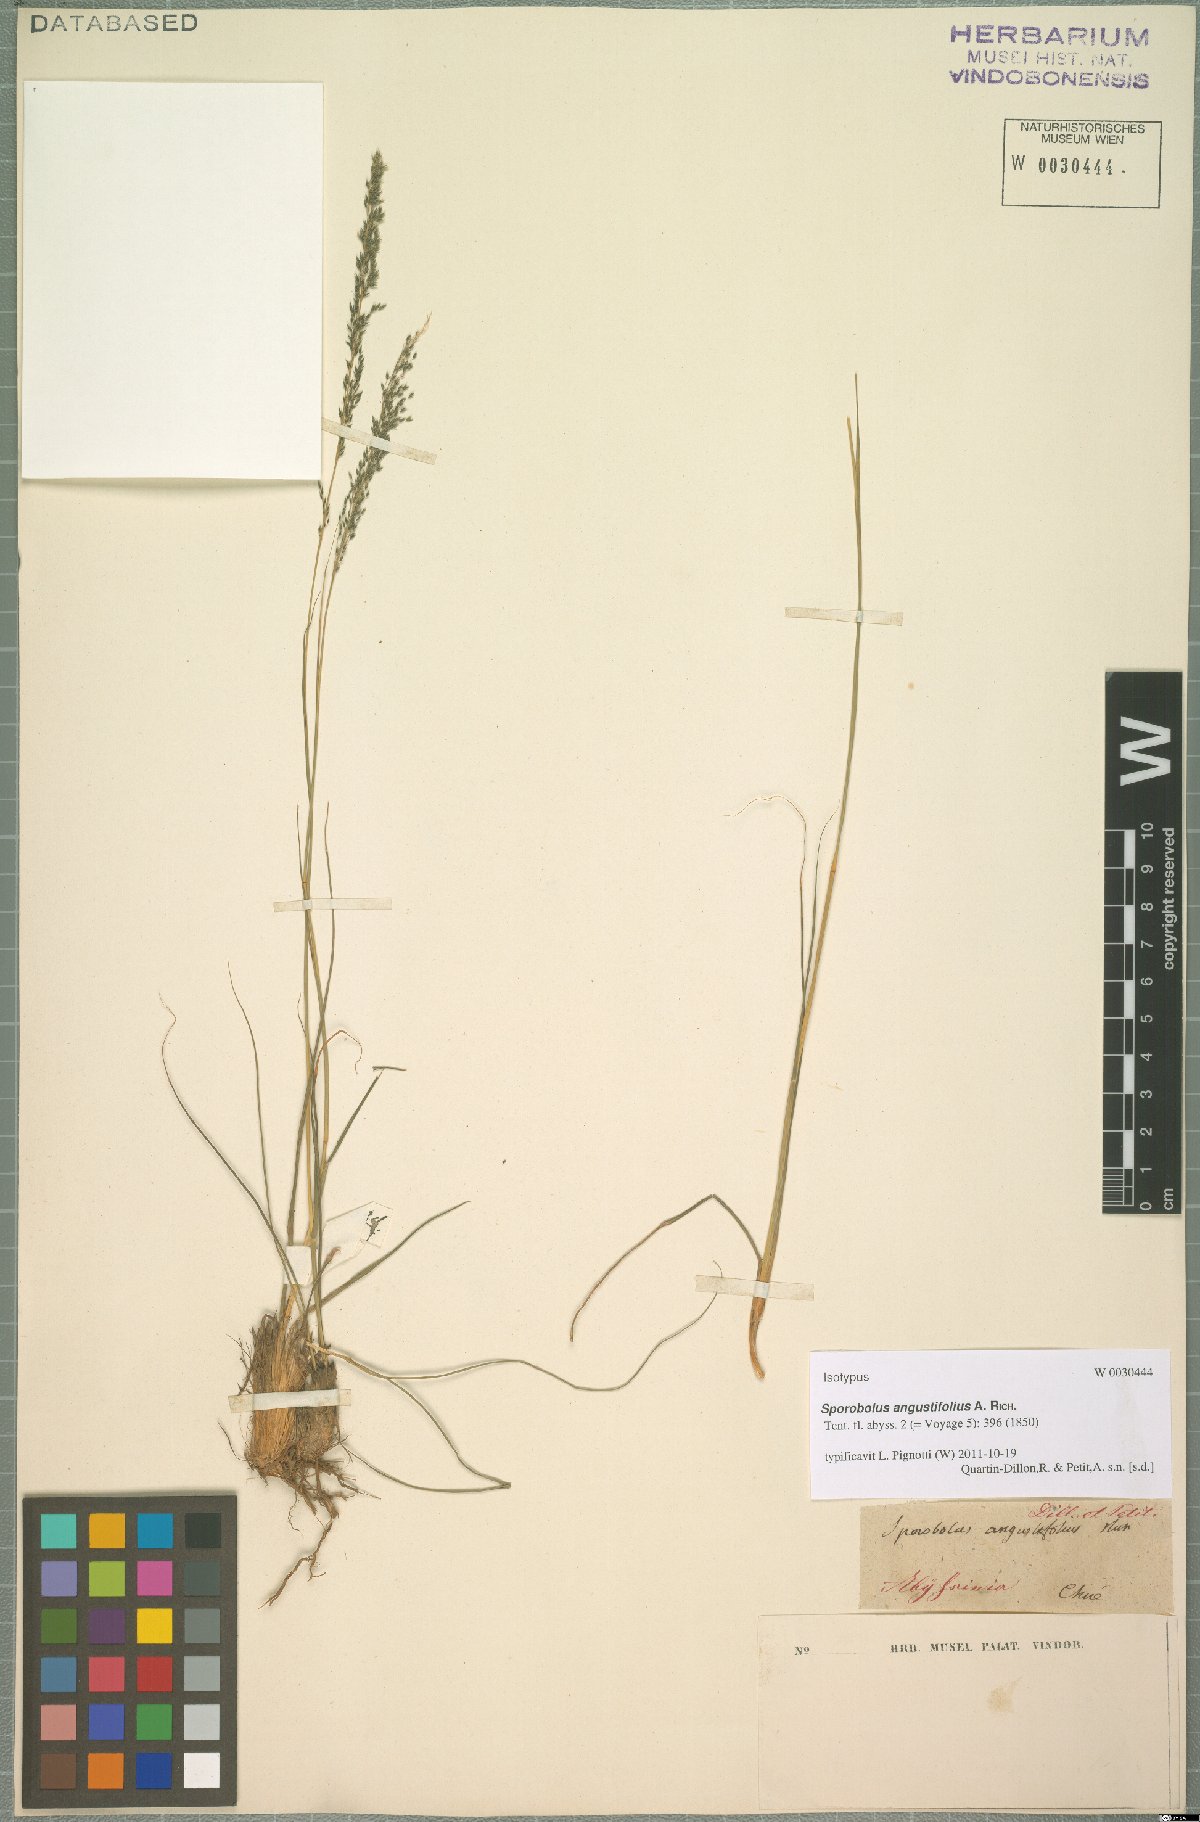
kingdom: Plantae
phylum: Tracheophyta
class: Liliopsida
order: Poales
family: Poaceae
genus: Sporobolus
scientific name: Sporobolus angustifolius
